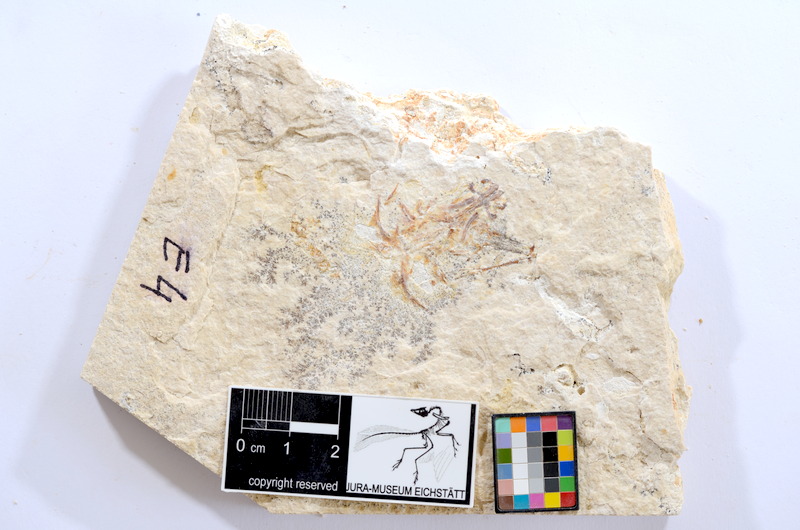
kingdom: Animalia
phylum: Chordata
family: Ascalaboidae
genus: Tharsis
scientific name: Tharsis dubius
